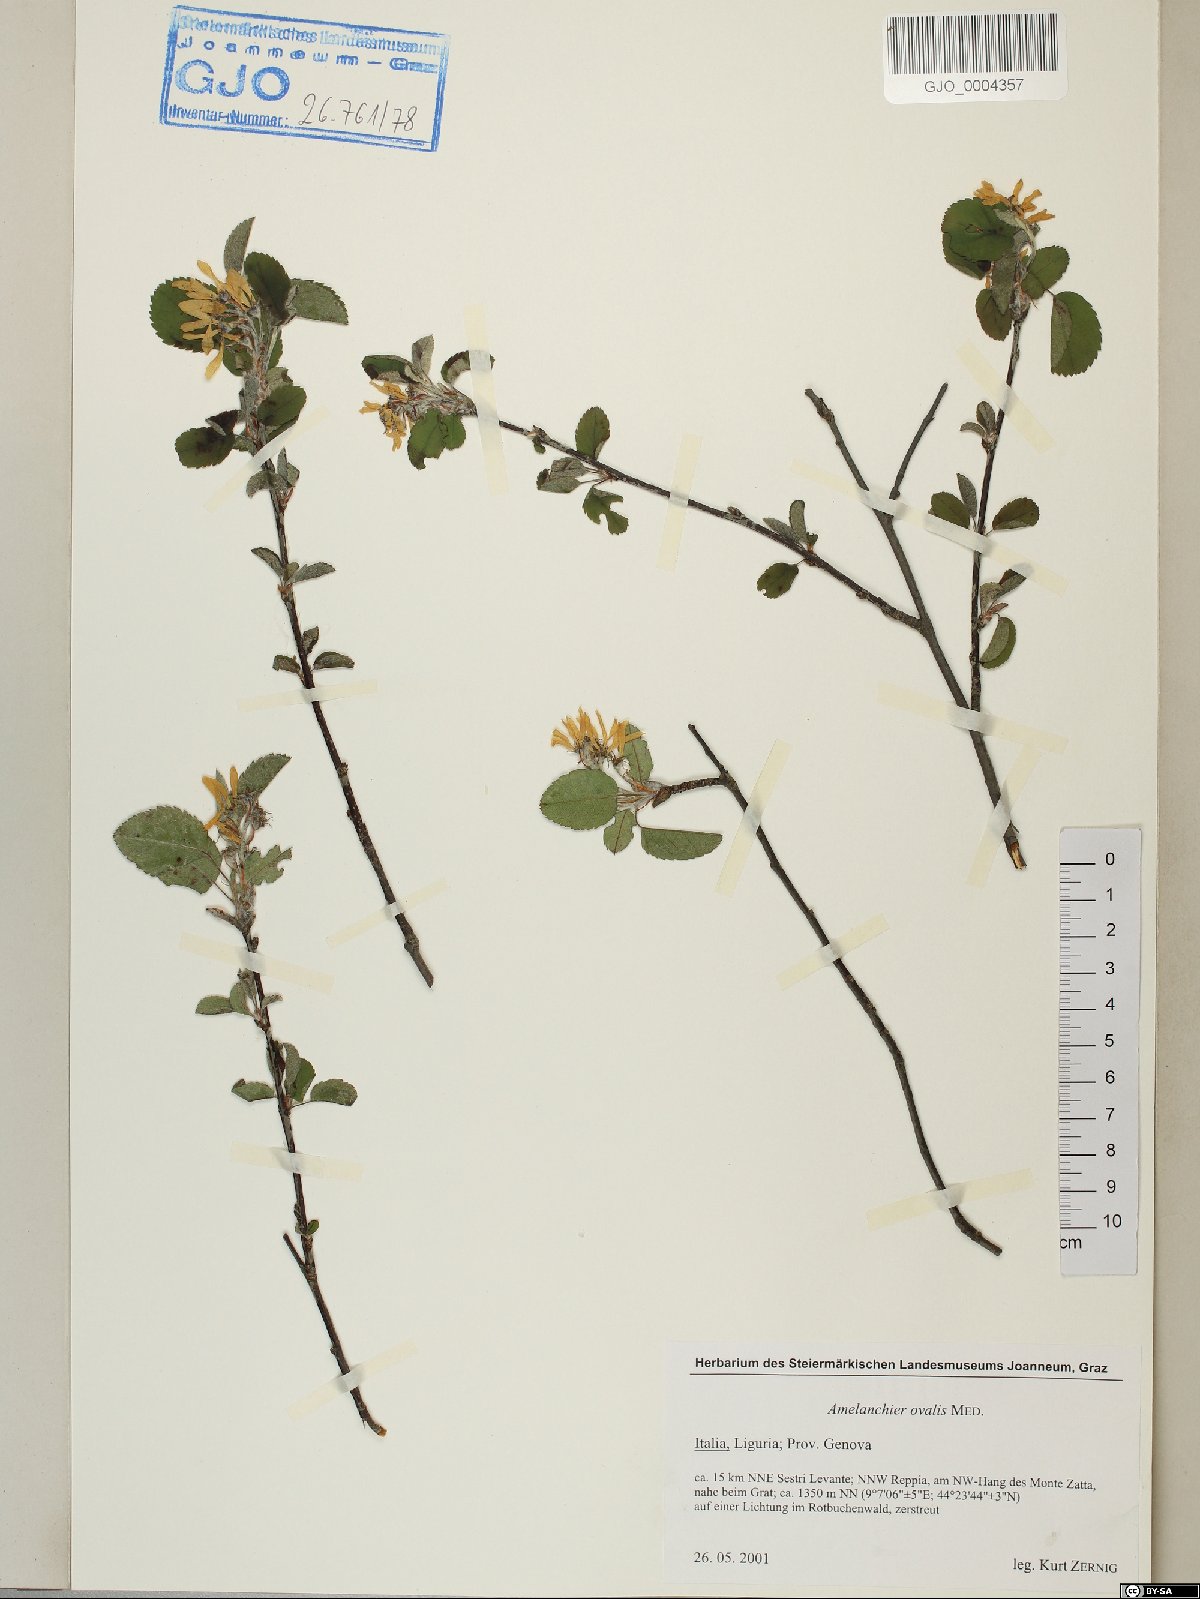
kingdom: Plantae
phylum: Tracheophyta
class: Magnoliopsida
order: Rosales
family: Rosaceae
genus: Amelanchier
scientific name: Amelanchier ovalis
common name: Serviceberry
